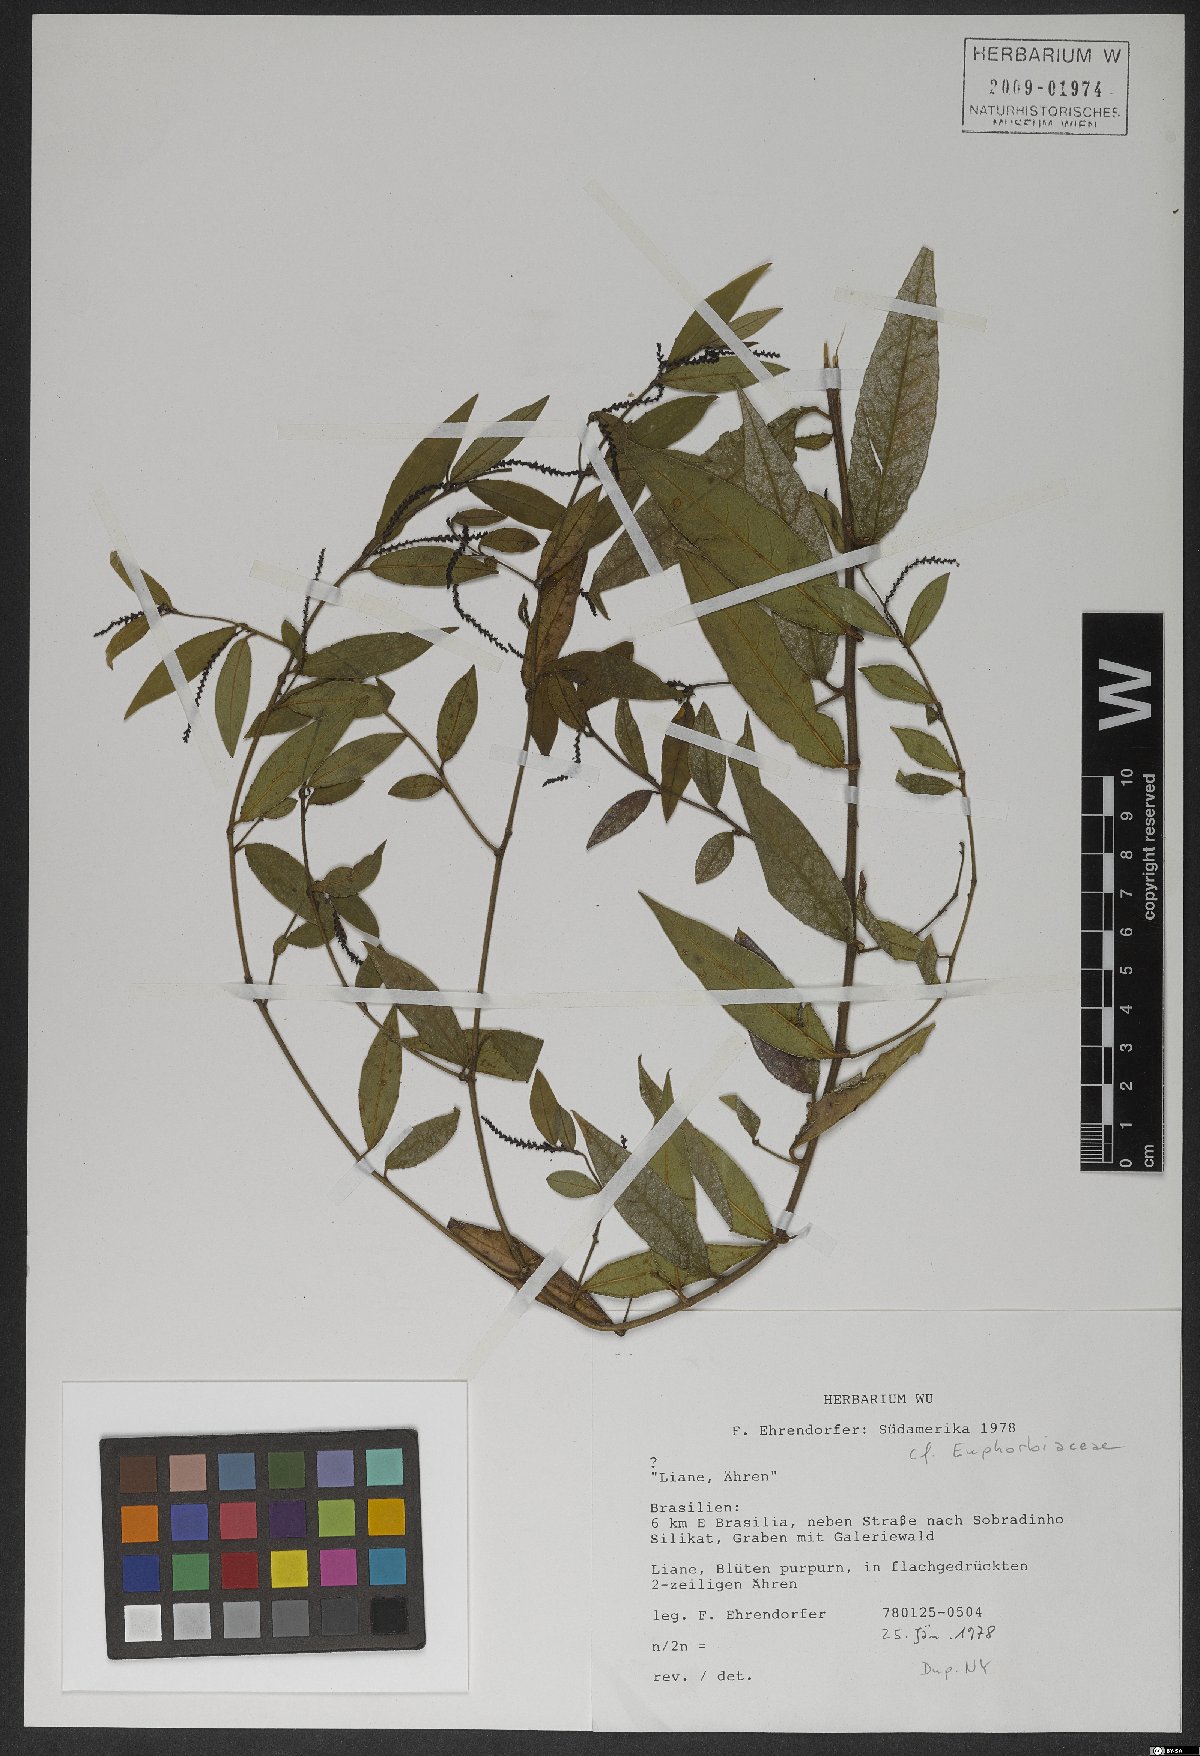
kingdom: Plantae
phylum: Tracheophyta
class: Magnoliopsida
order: Malpighiales
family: Euphorbiaceae
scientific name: Euphorbiaceae
